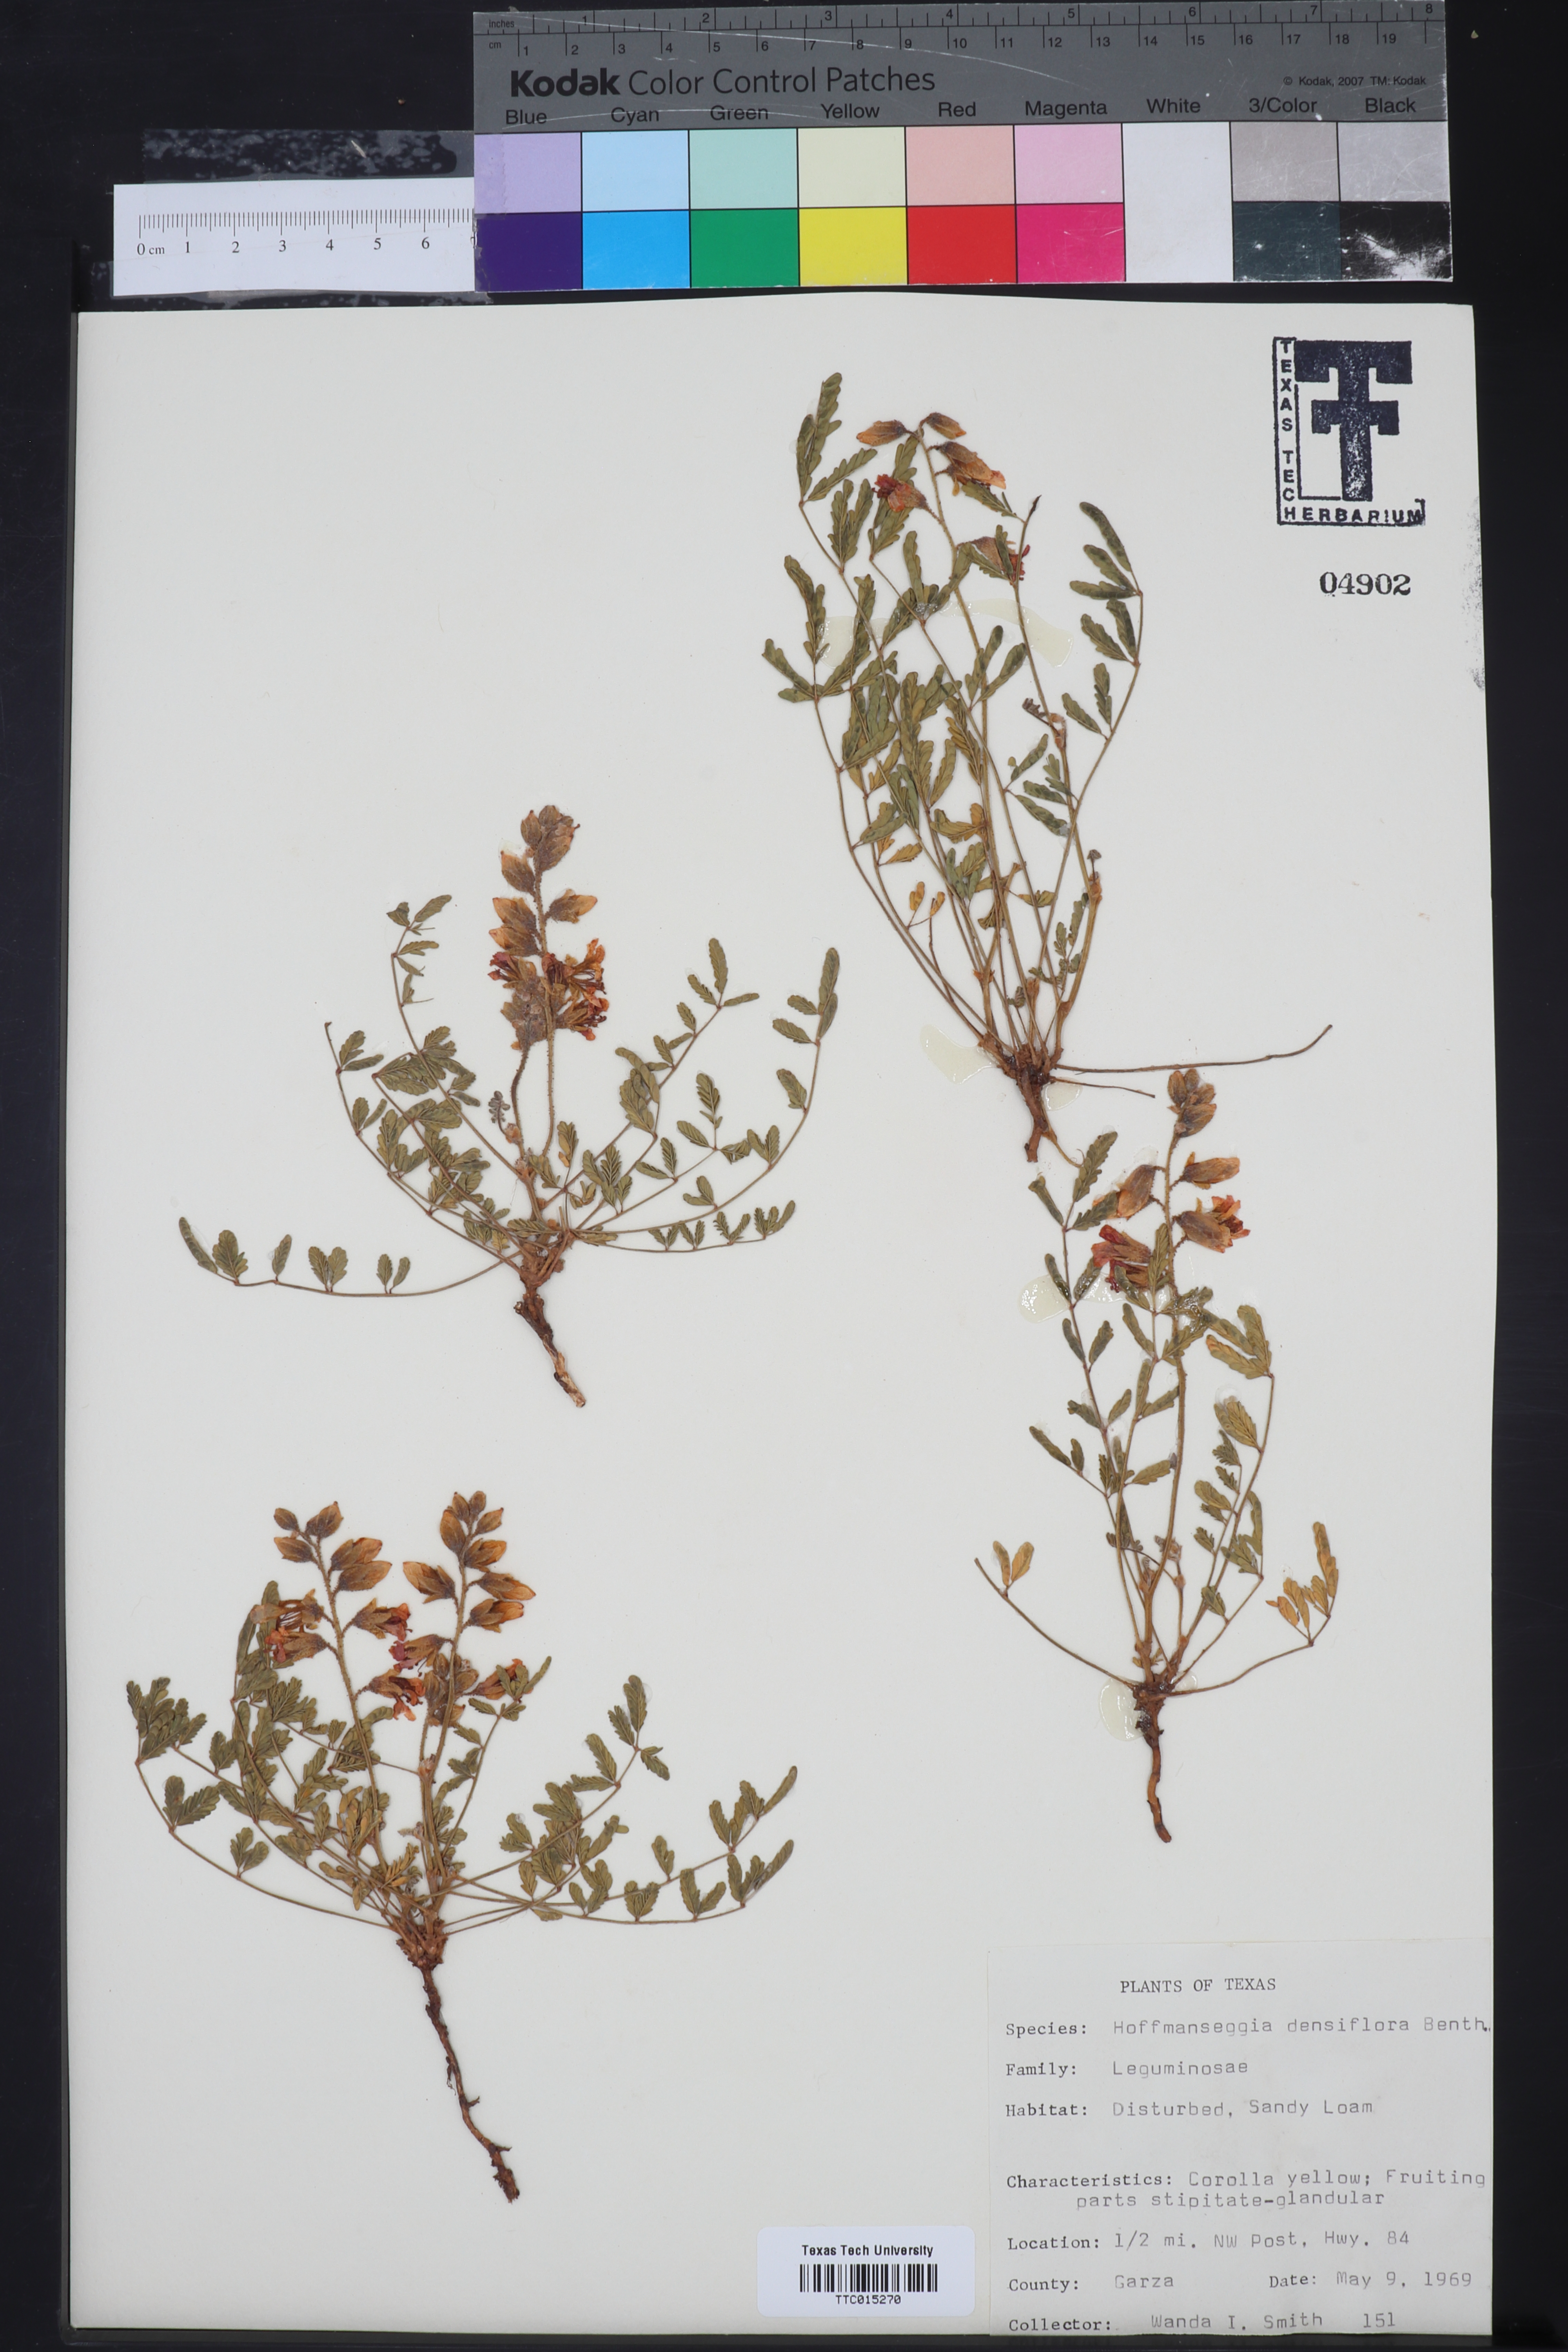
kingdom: Plantae
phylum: Tracheophyta
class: Magnoliopsida
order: Fabales
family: Fabaceae
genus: Hoffmannseggia
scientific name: Hoffmannseggia glauca
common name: Pignut
